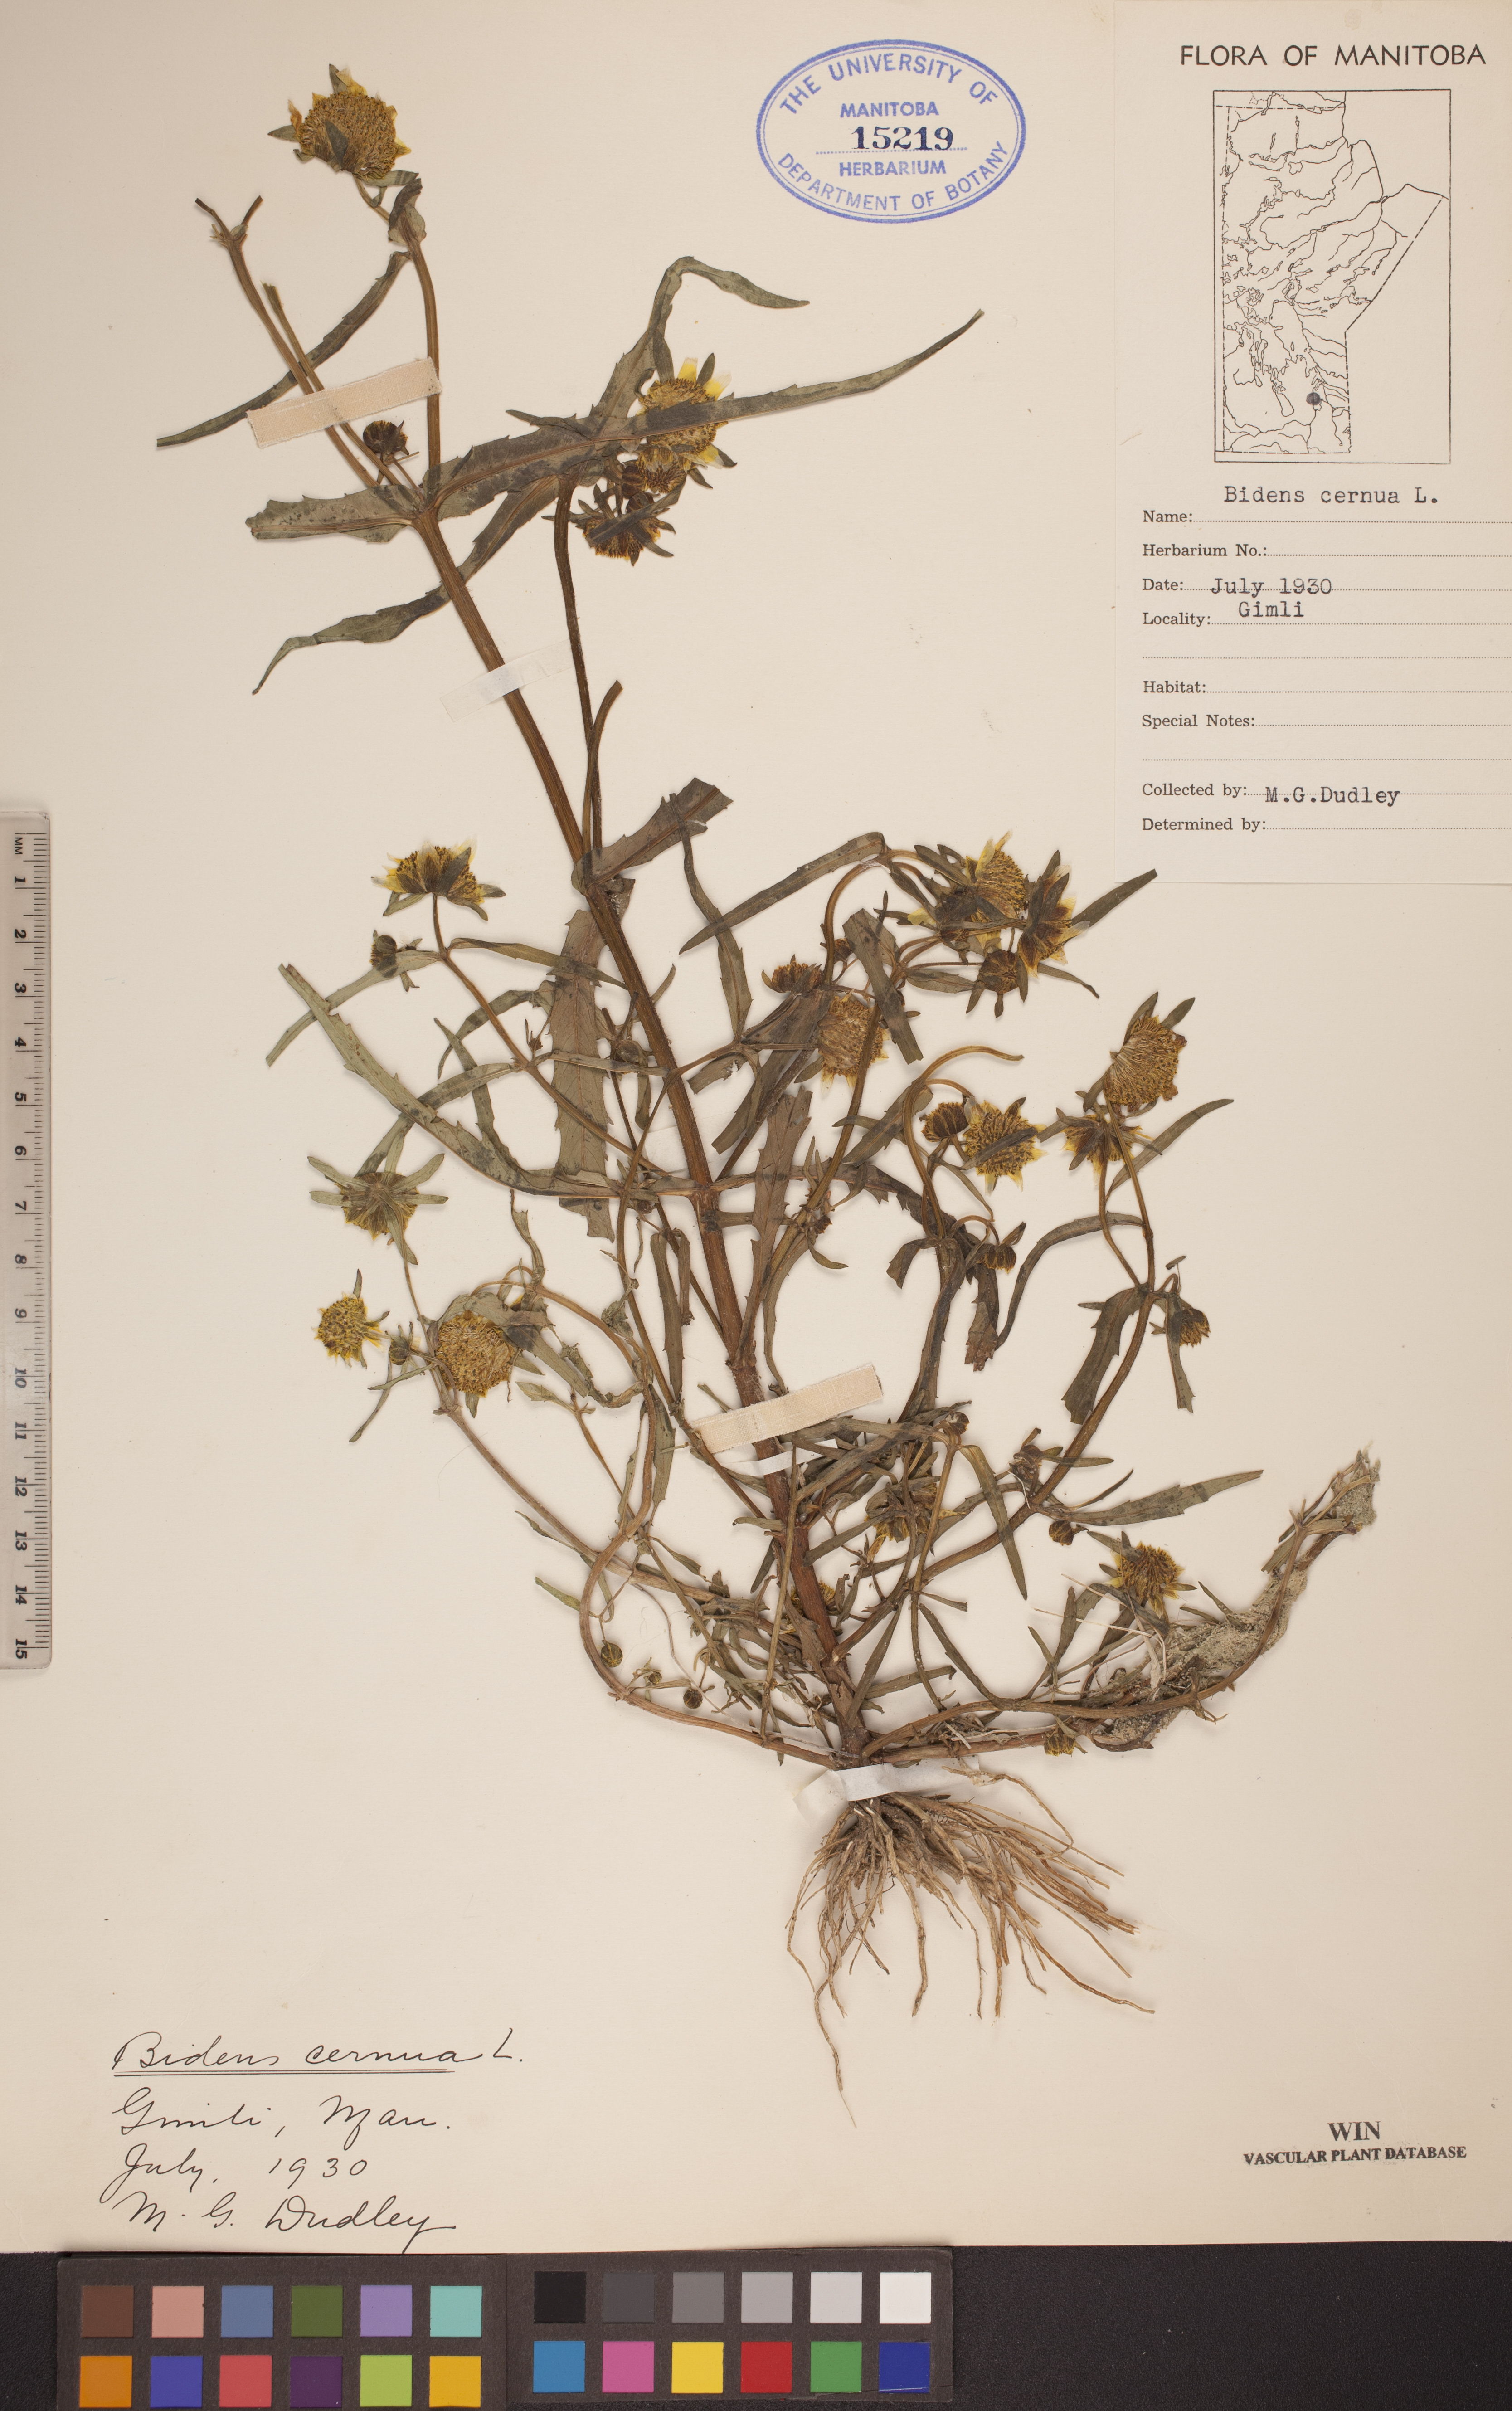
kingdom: Plantae
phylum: Tracheophyta
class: Magnoliopsida
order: Asterales
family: Asteraceae
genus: Bidens
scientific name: Bidens cernua
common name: Nodding bur-marigold
